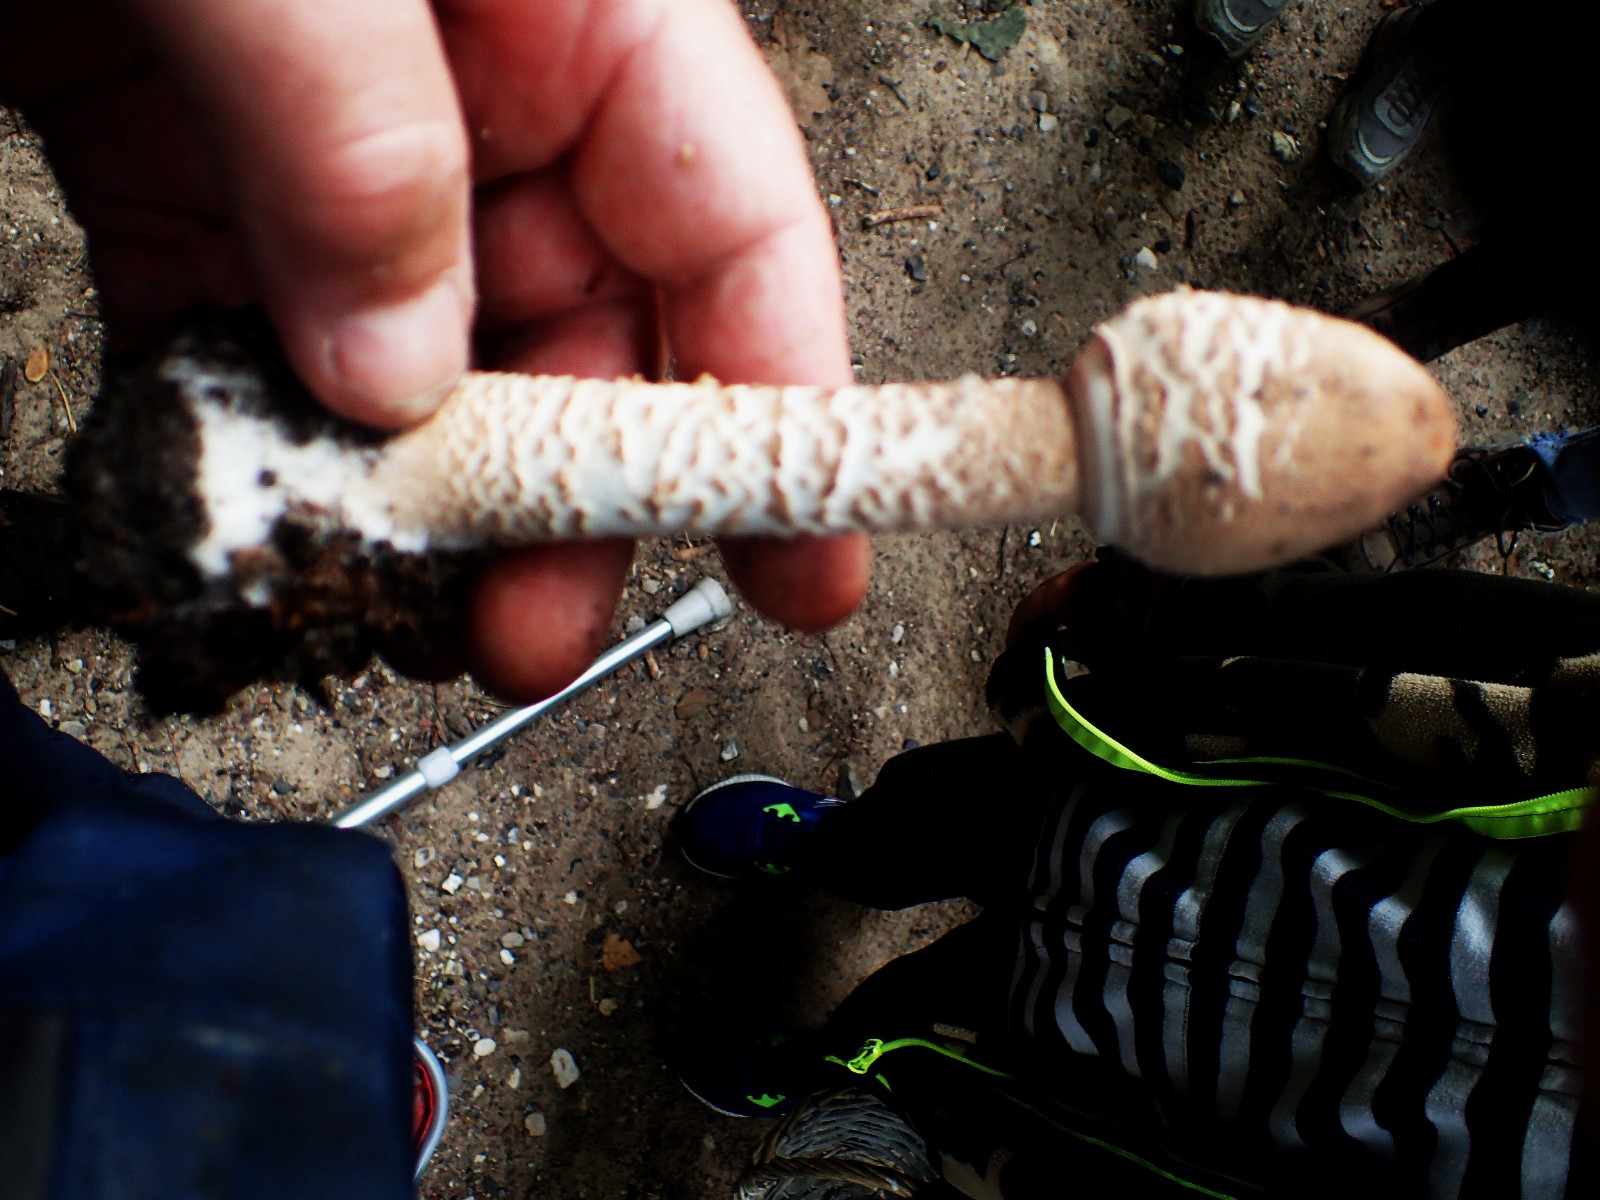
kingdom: Fungi
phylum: Basidiomycota
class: Agaricomycetes
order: Agaricales
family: Agaricaceae
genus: Macrolepiota
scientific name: Macrolepiota procera
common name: stor kæmpeparasolhat
